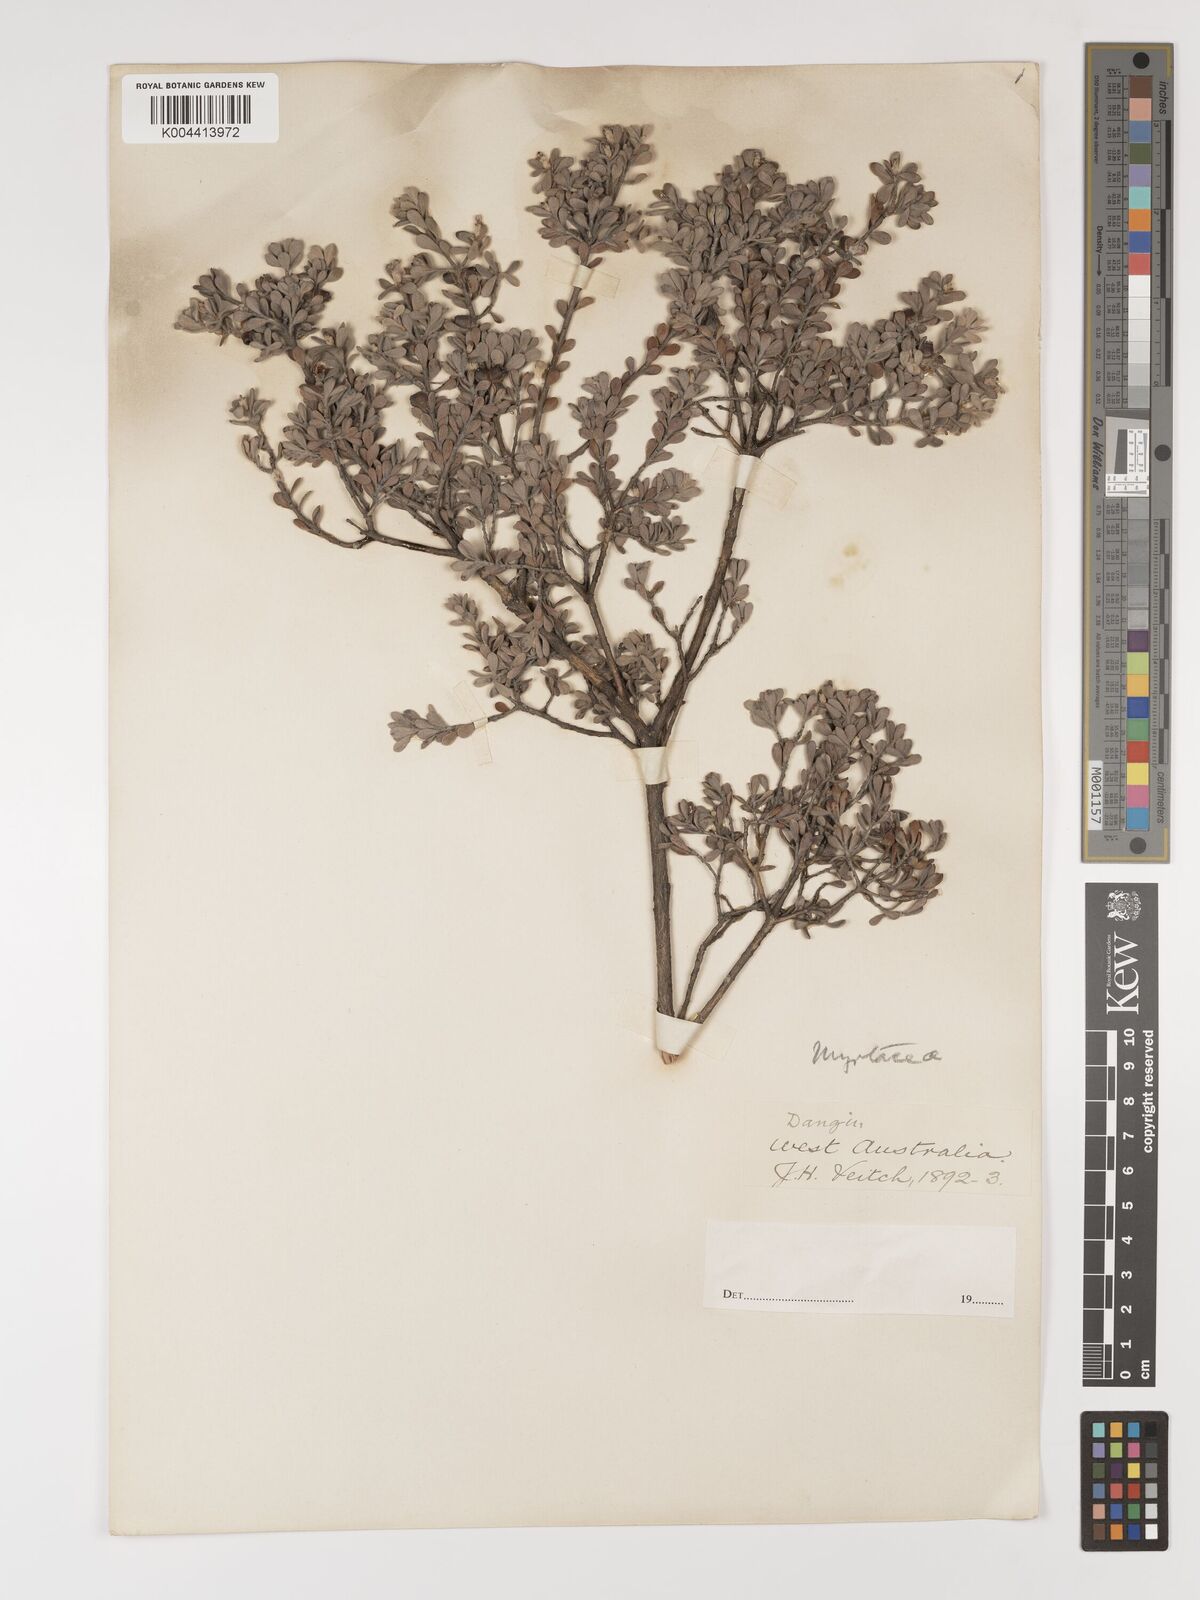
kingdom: Plantae
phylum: Tracheophyta
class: Magnoliopsida
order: Myrtales
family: Myrtaceae
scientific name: Myrtaceae
